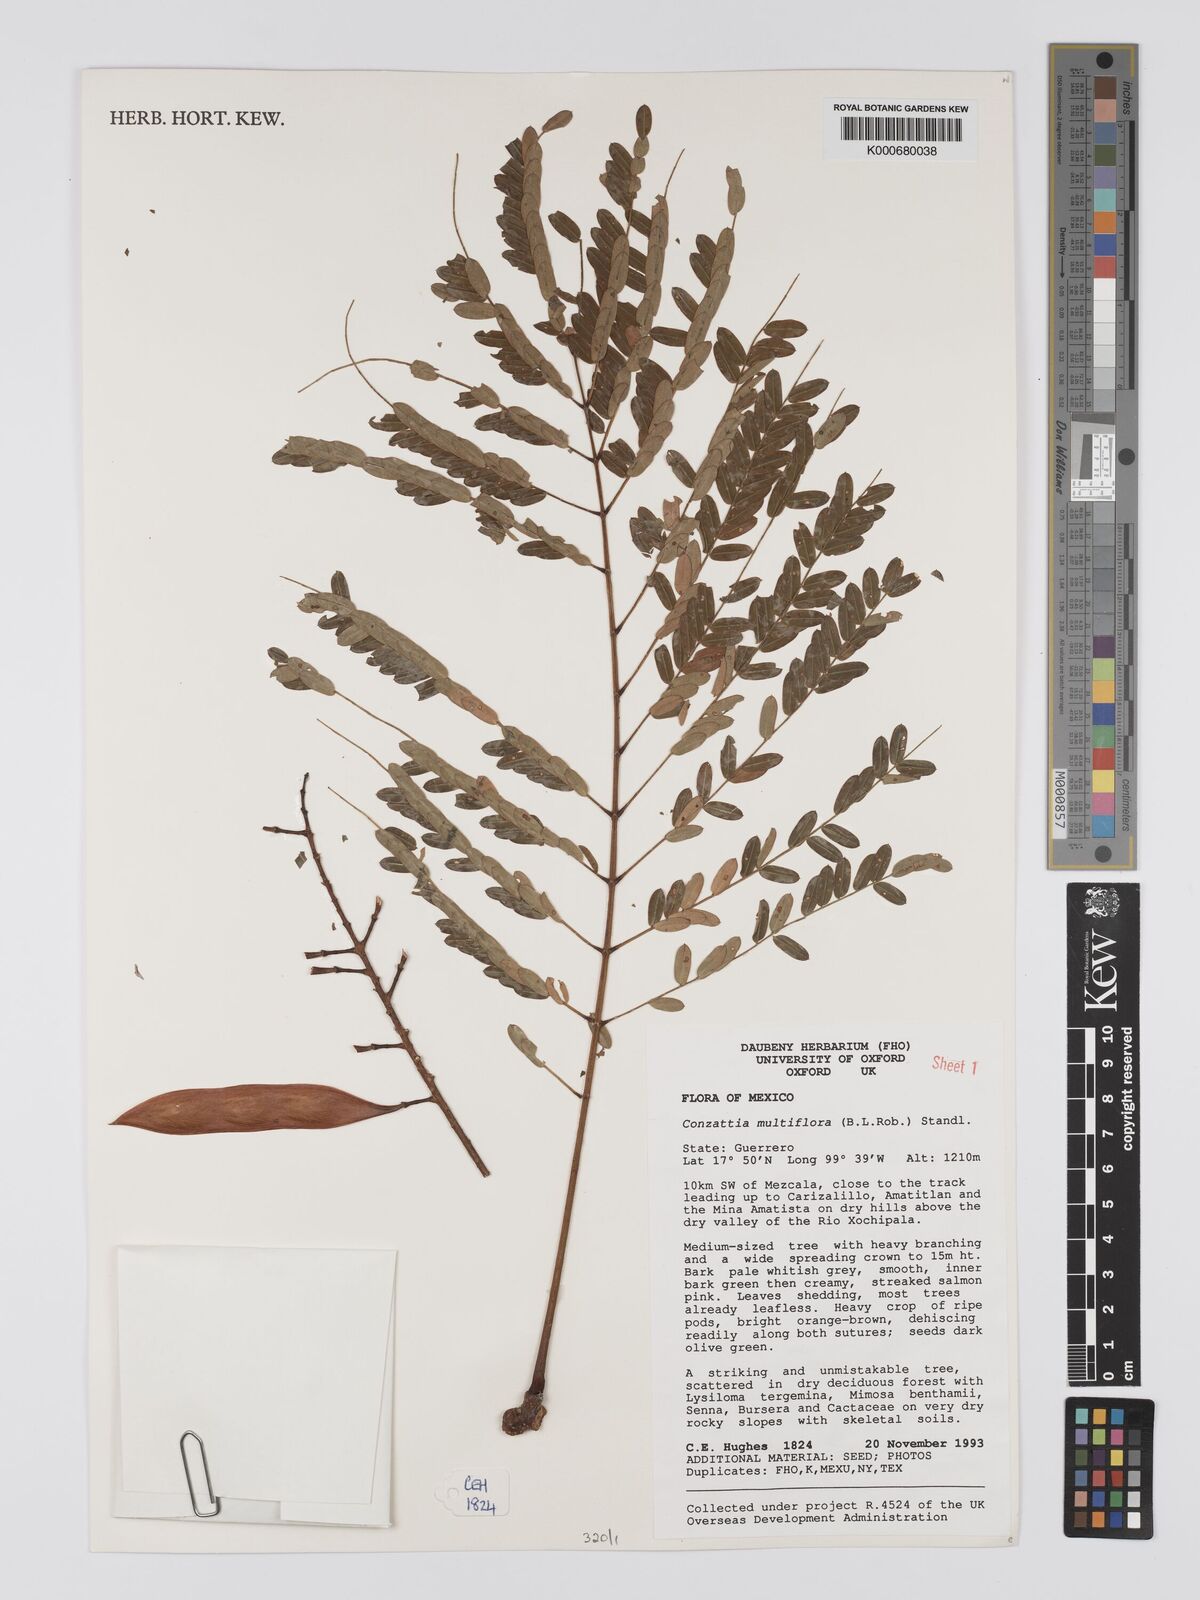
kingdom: Plantae
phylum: Tracheophyta
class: Magnoliopsida
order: Fabales
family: Fabaceae
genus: Conzattia
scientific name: Conzattia multiflora
